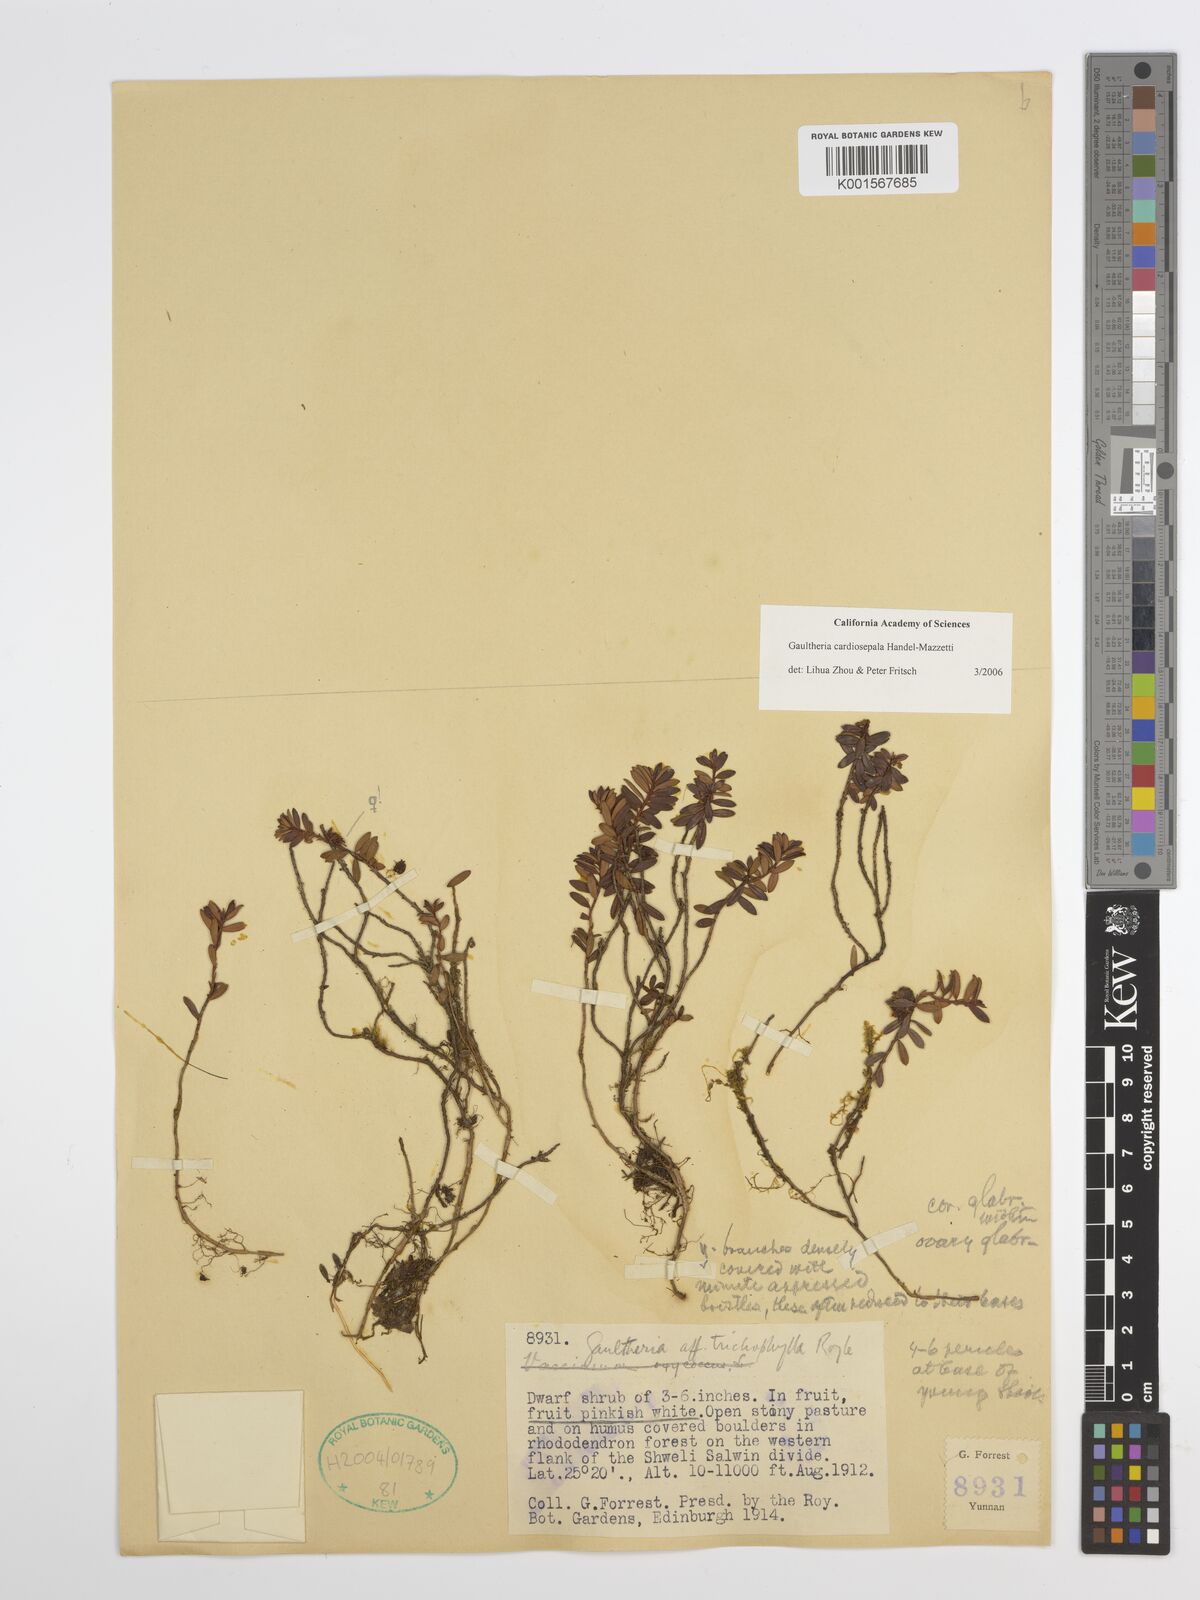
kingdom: Plantae
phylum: Tracheophyta
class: Magnoliopsida
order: Ericales
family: Ericaceae
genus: Gaultheria
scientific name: Gaultheria cardiosepala
